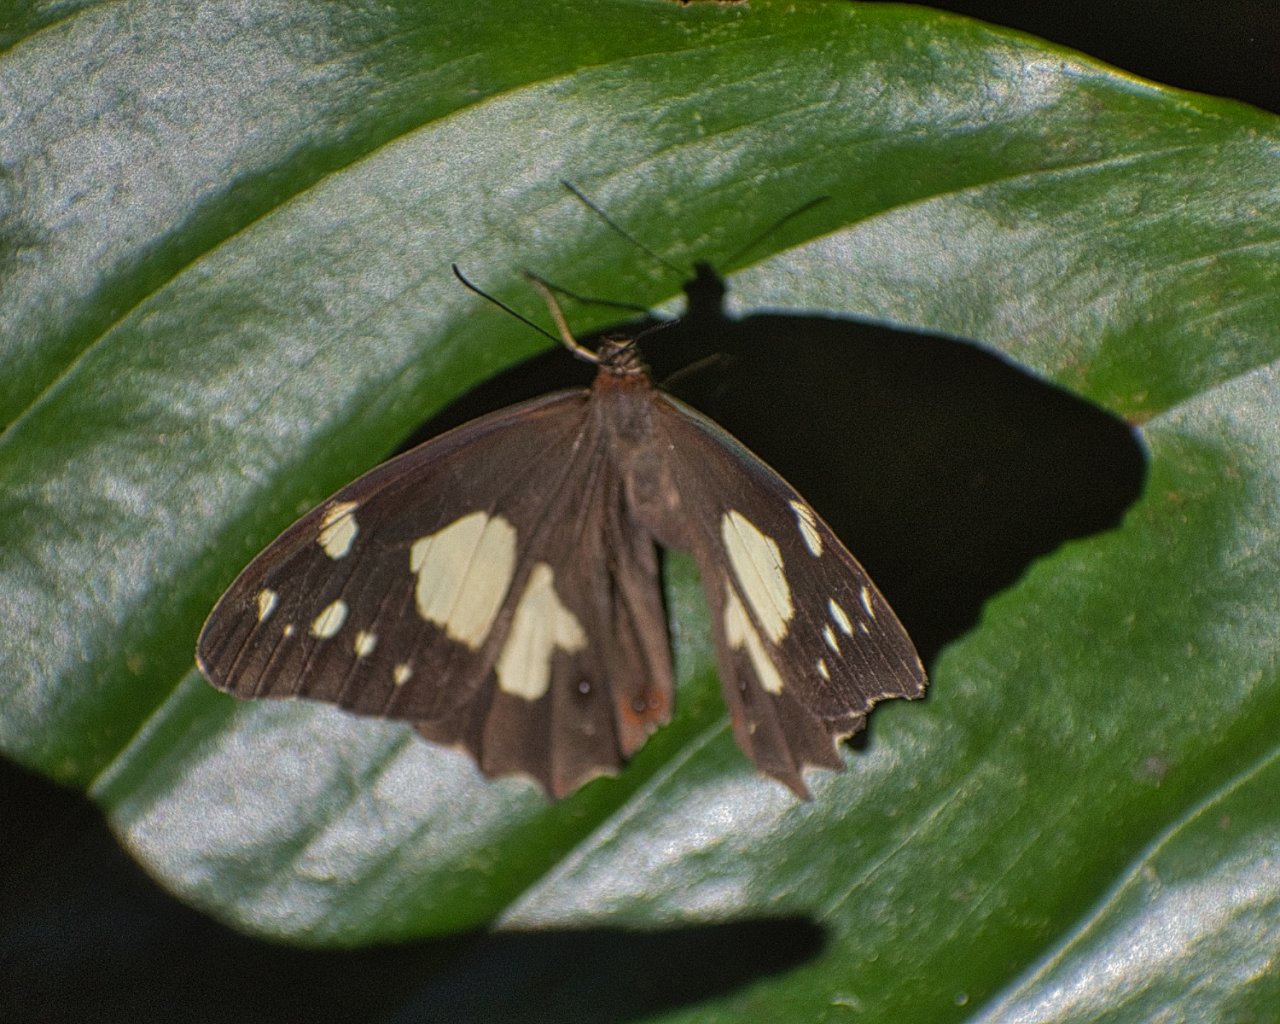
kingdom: Animalia
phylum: Arthropoda
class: Insecta
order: Lepidoptera
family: Nymphalidae
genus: Oxeoschistus
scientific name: Oxeoschistus tauropolis
